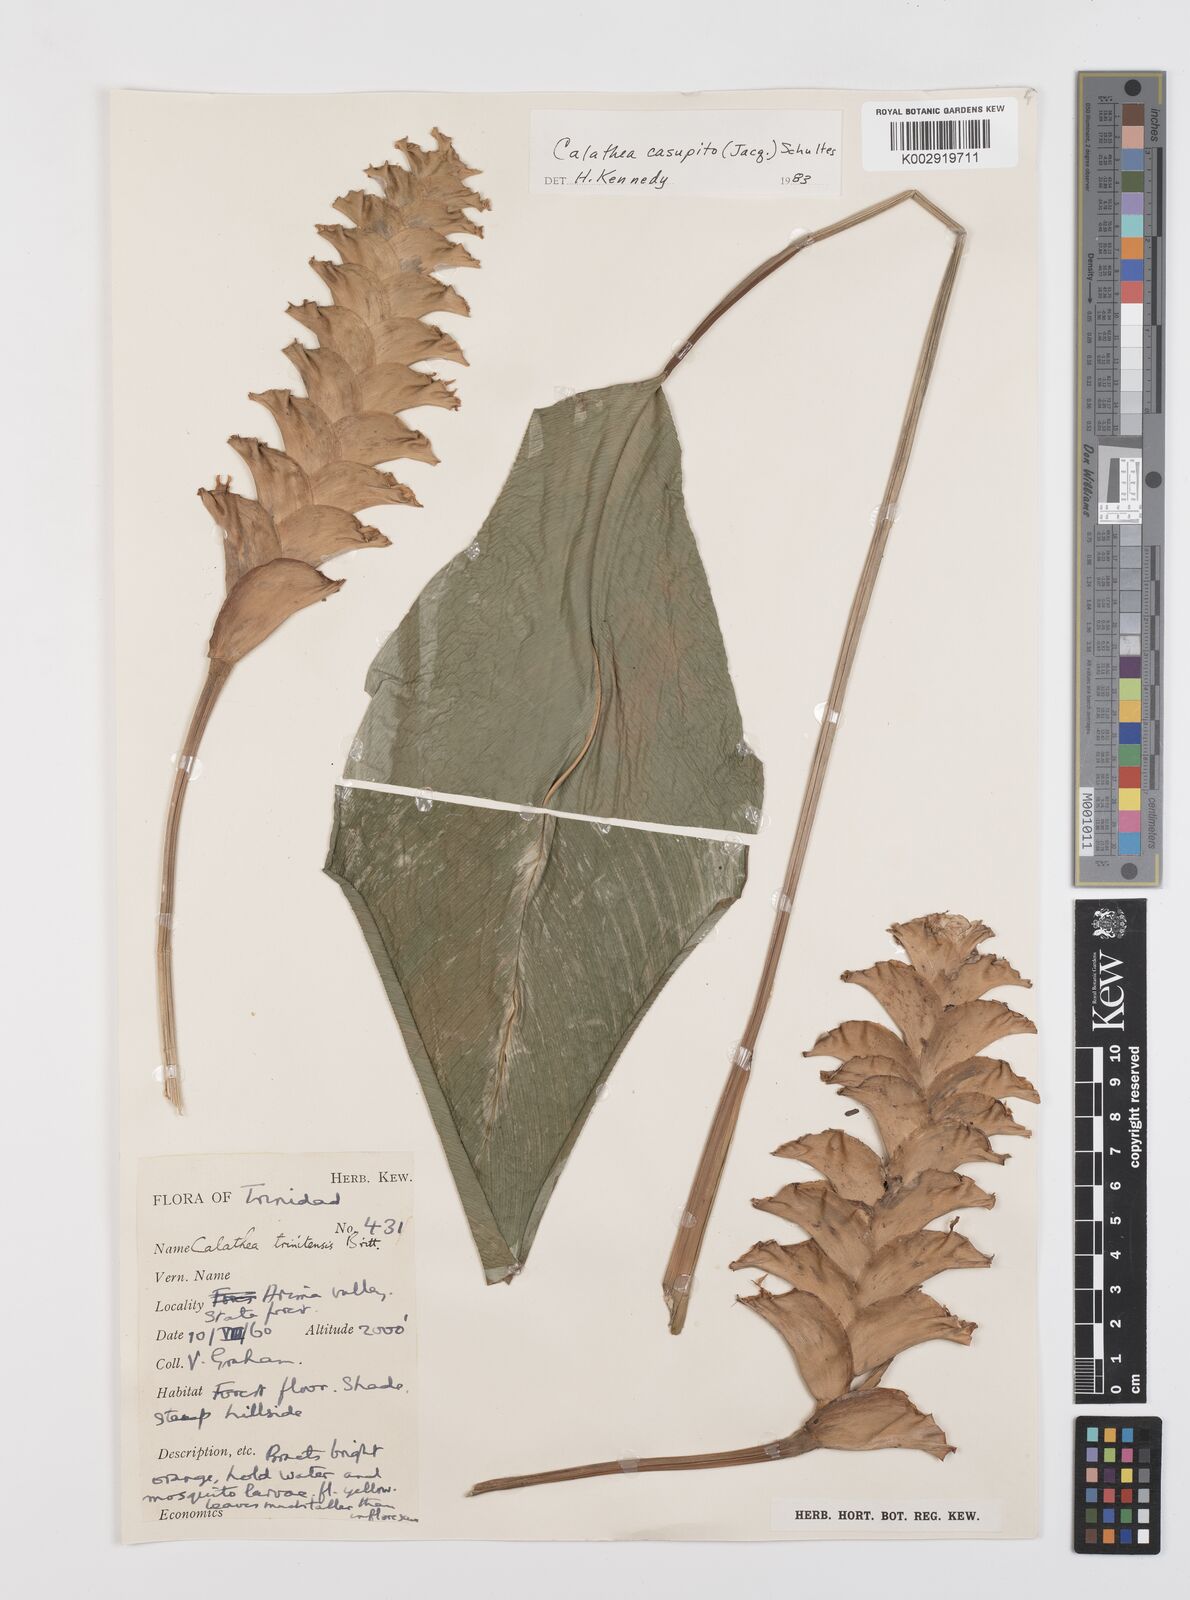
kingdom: Plantae
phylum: Tracheophyta
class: Liliopsida
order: Zingiberales
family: Marantaceae
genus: Calathea
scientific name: Calathea casupito
